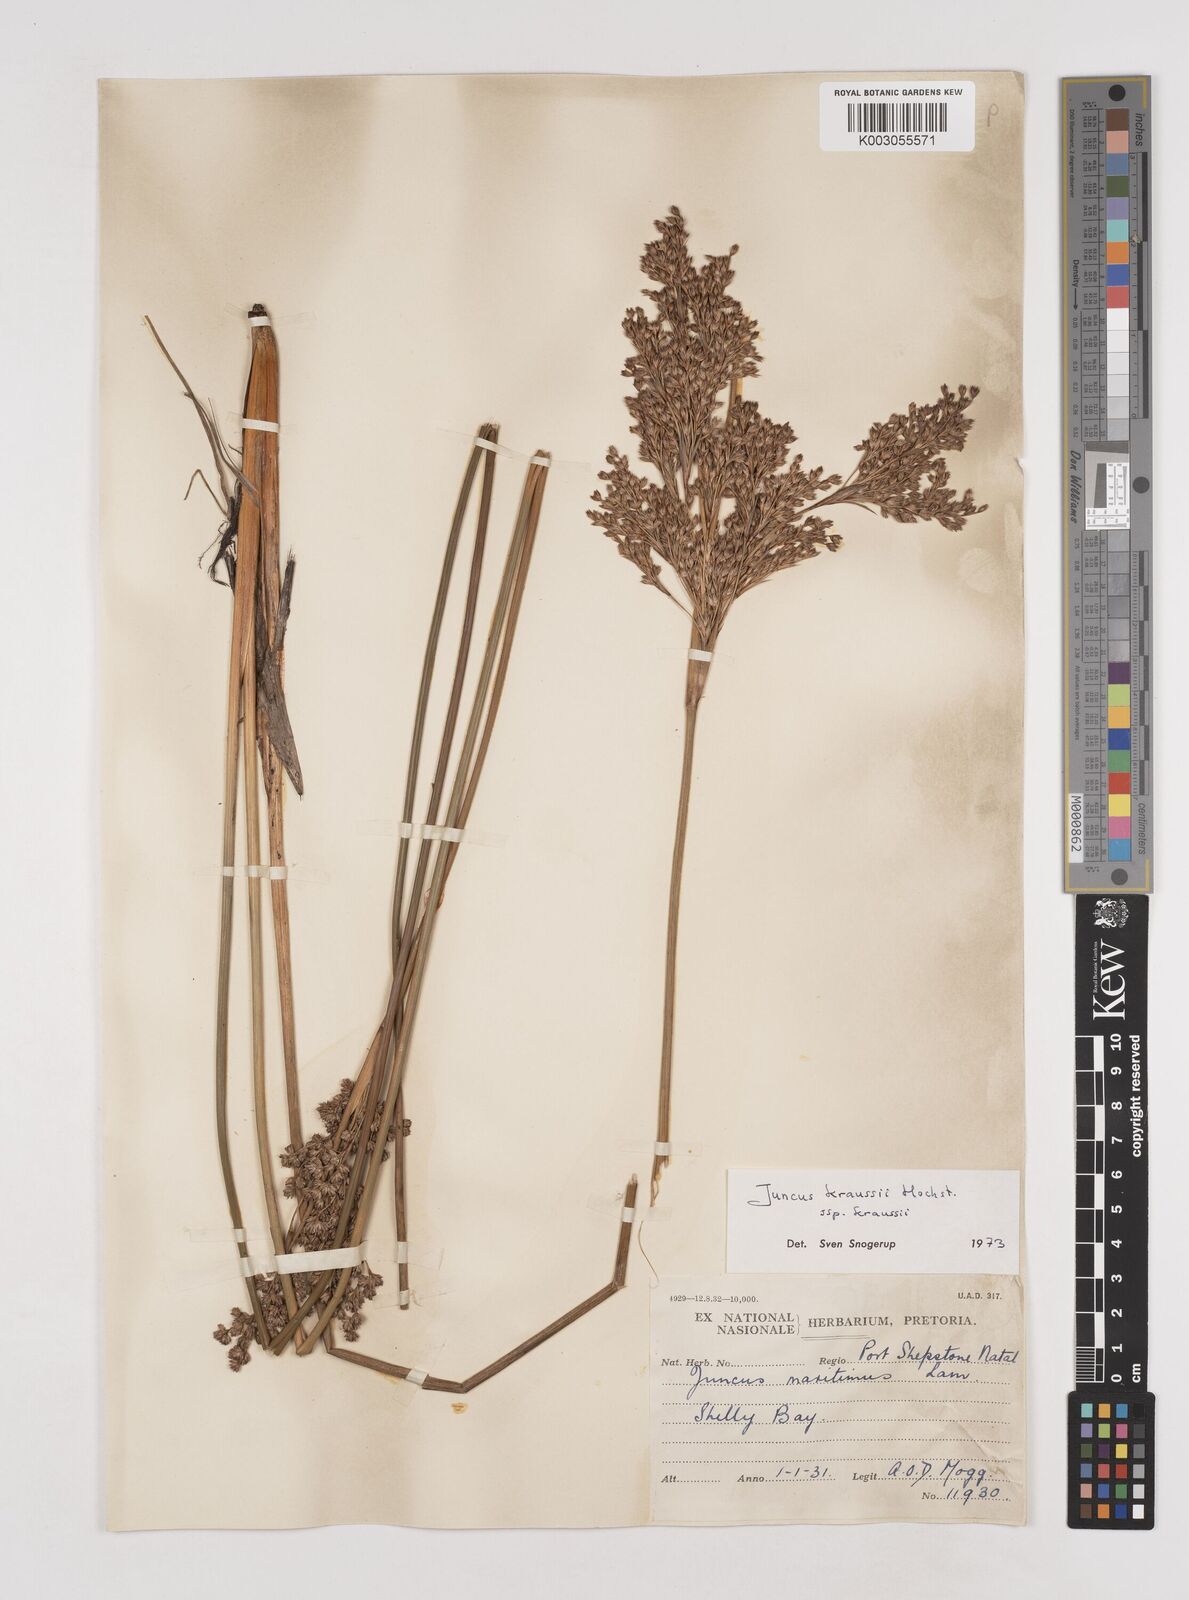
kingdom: Plantae
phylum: Tracheophyta
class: Liliopsida
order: Poales
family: Juncaceae
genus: Juncus
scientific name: Juncus kraussii
